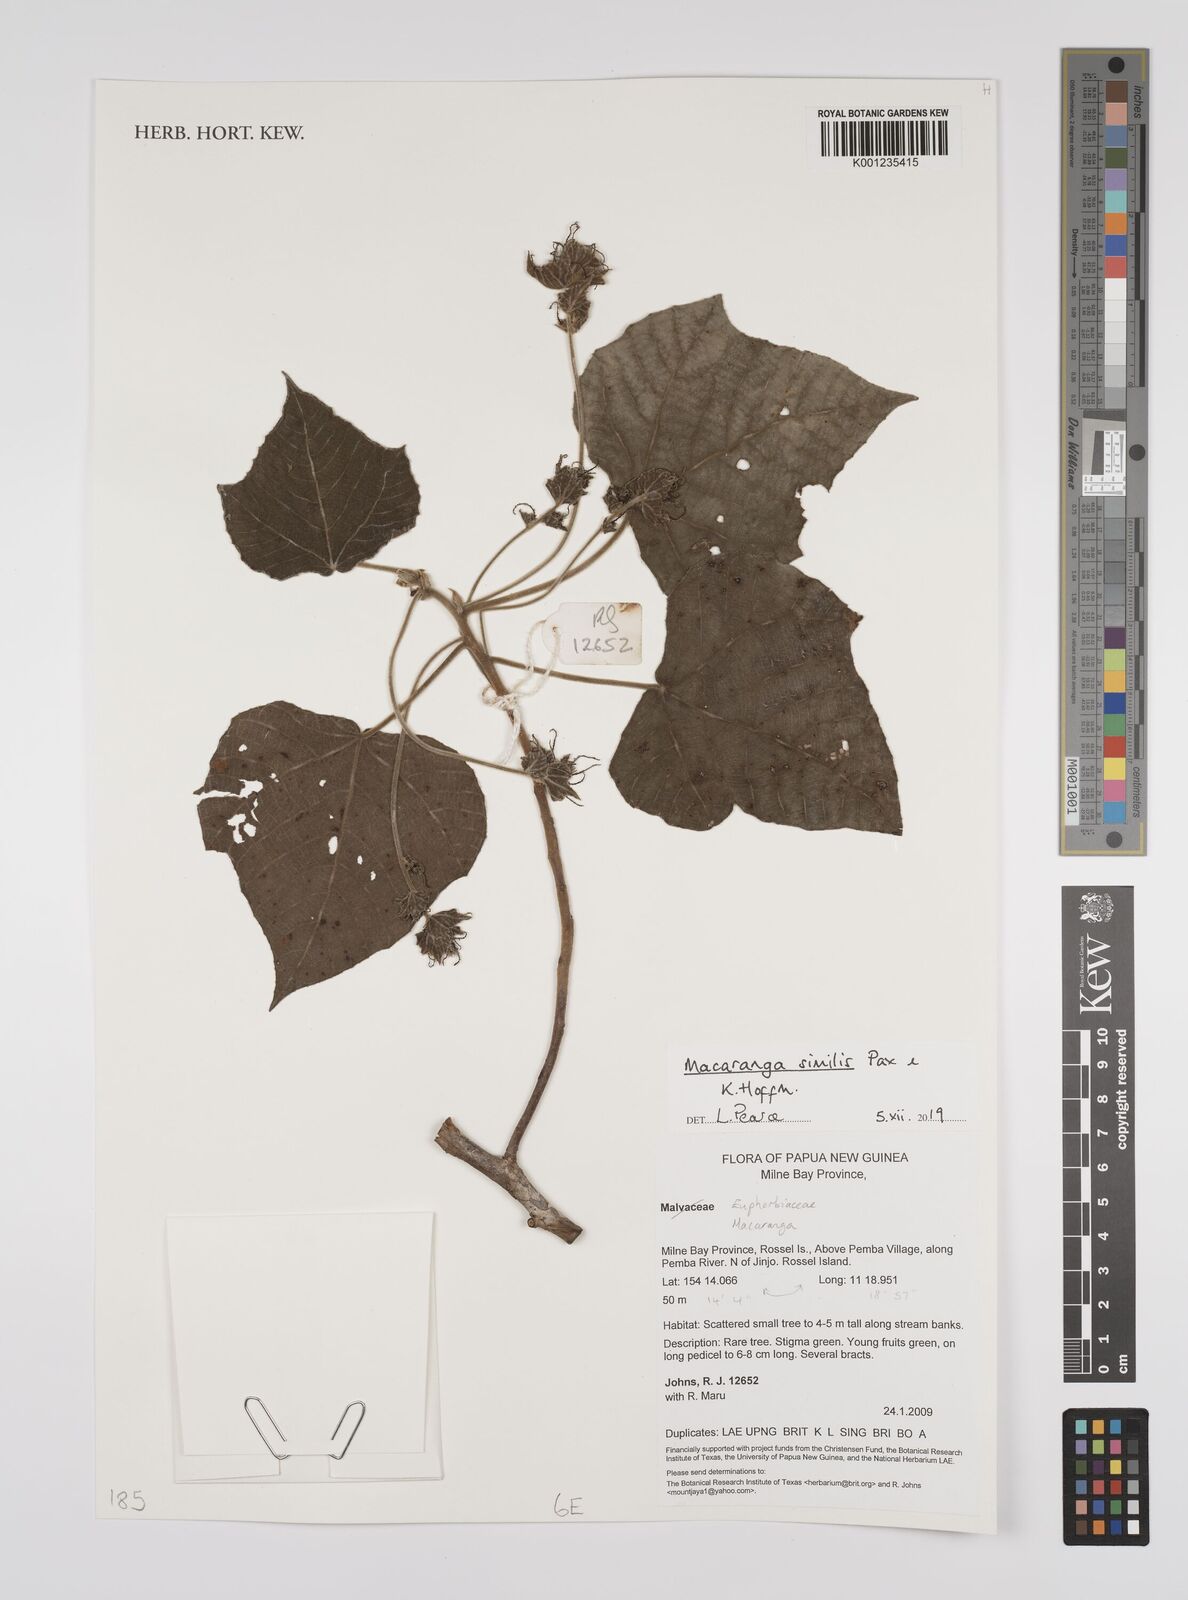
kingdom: Plantae
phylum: Tracheophyta
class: Magnoliopsida
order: Malpighiales
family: Euphorbiaceae
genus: Macaranga
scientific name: Macaranga similis
